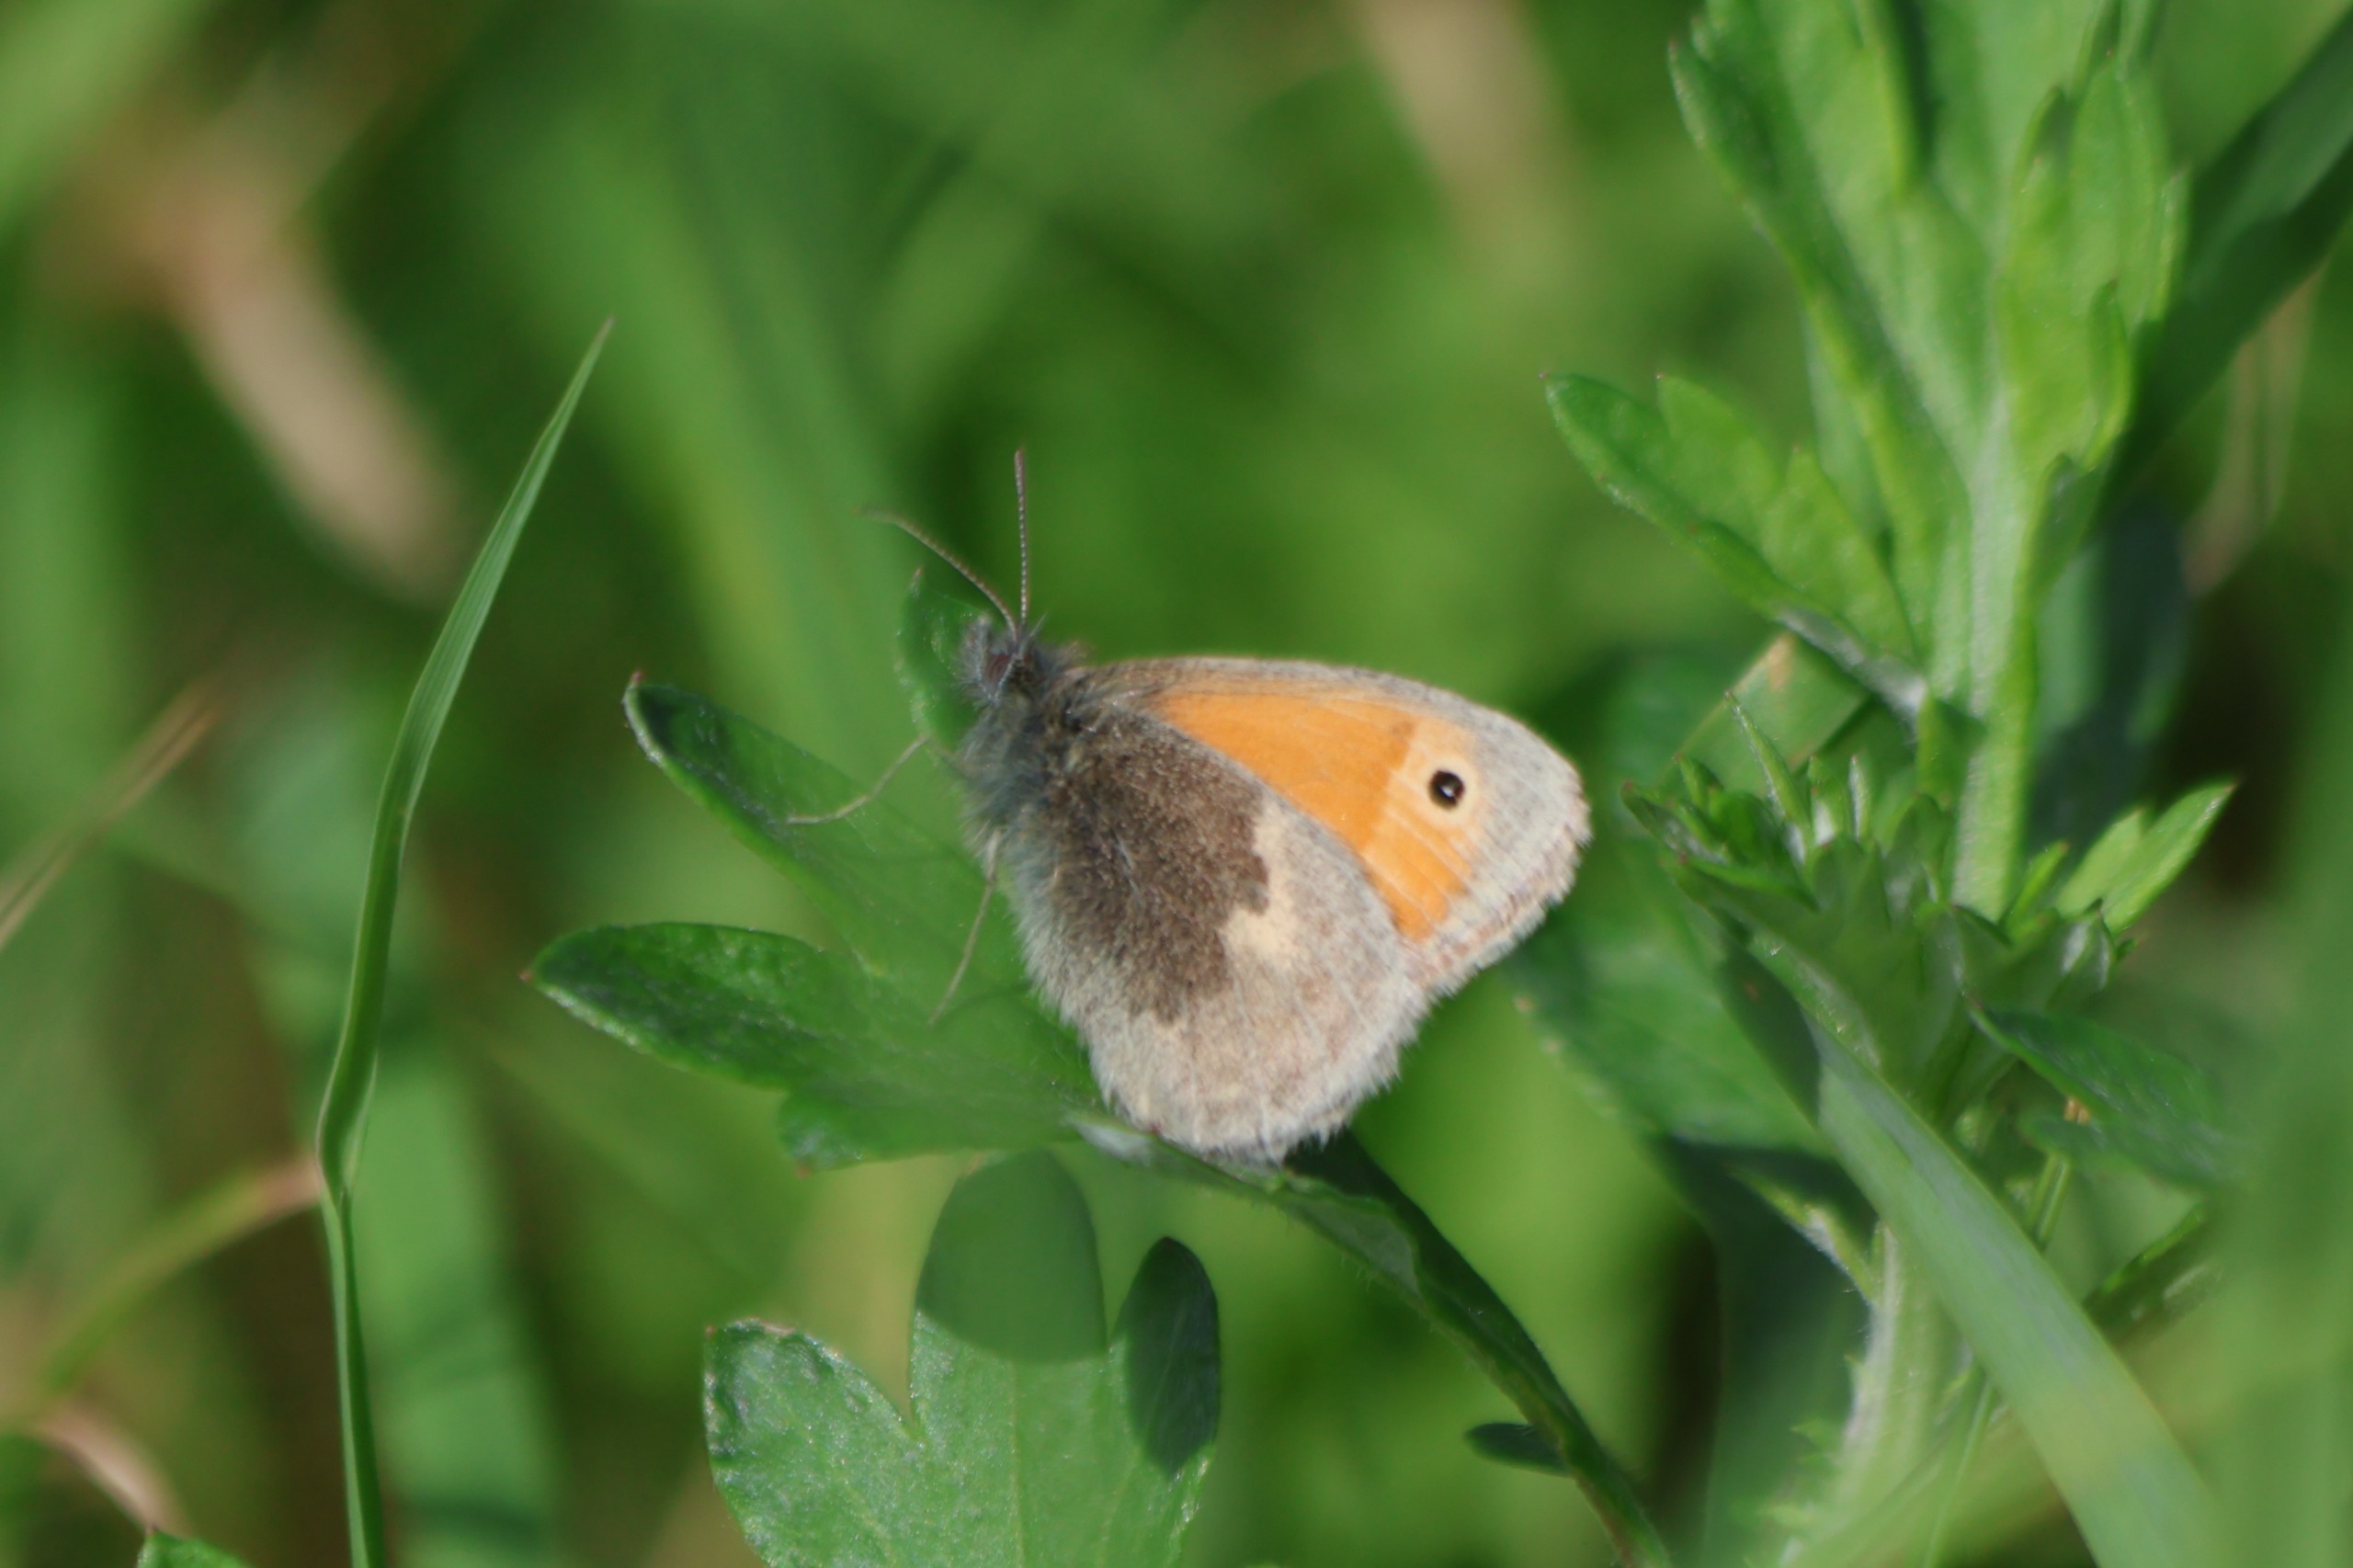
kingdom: Animalia
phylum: Arthropoda
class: Insecta
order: Lepidoptera
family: Nymphalidae
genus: Coenonympha
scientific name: Coenonympha pamphilus
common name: Okkergul randøje
